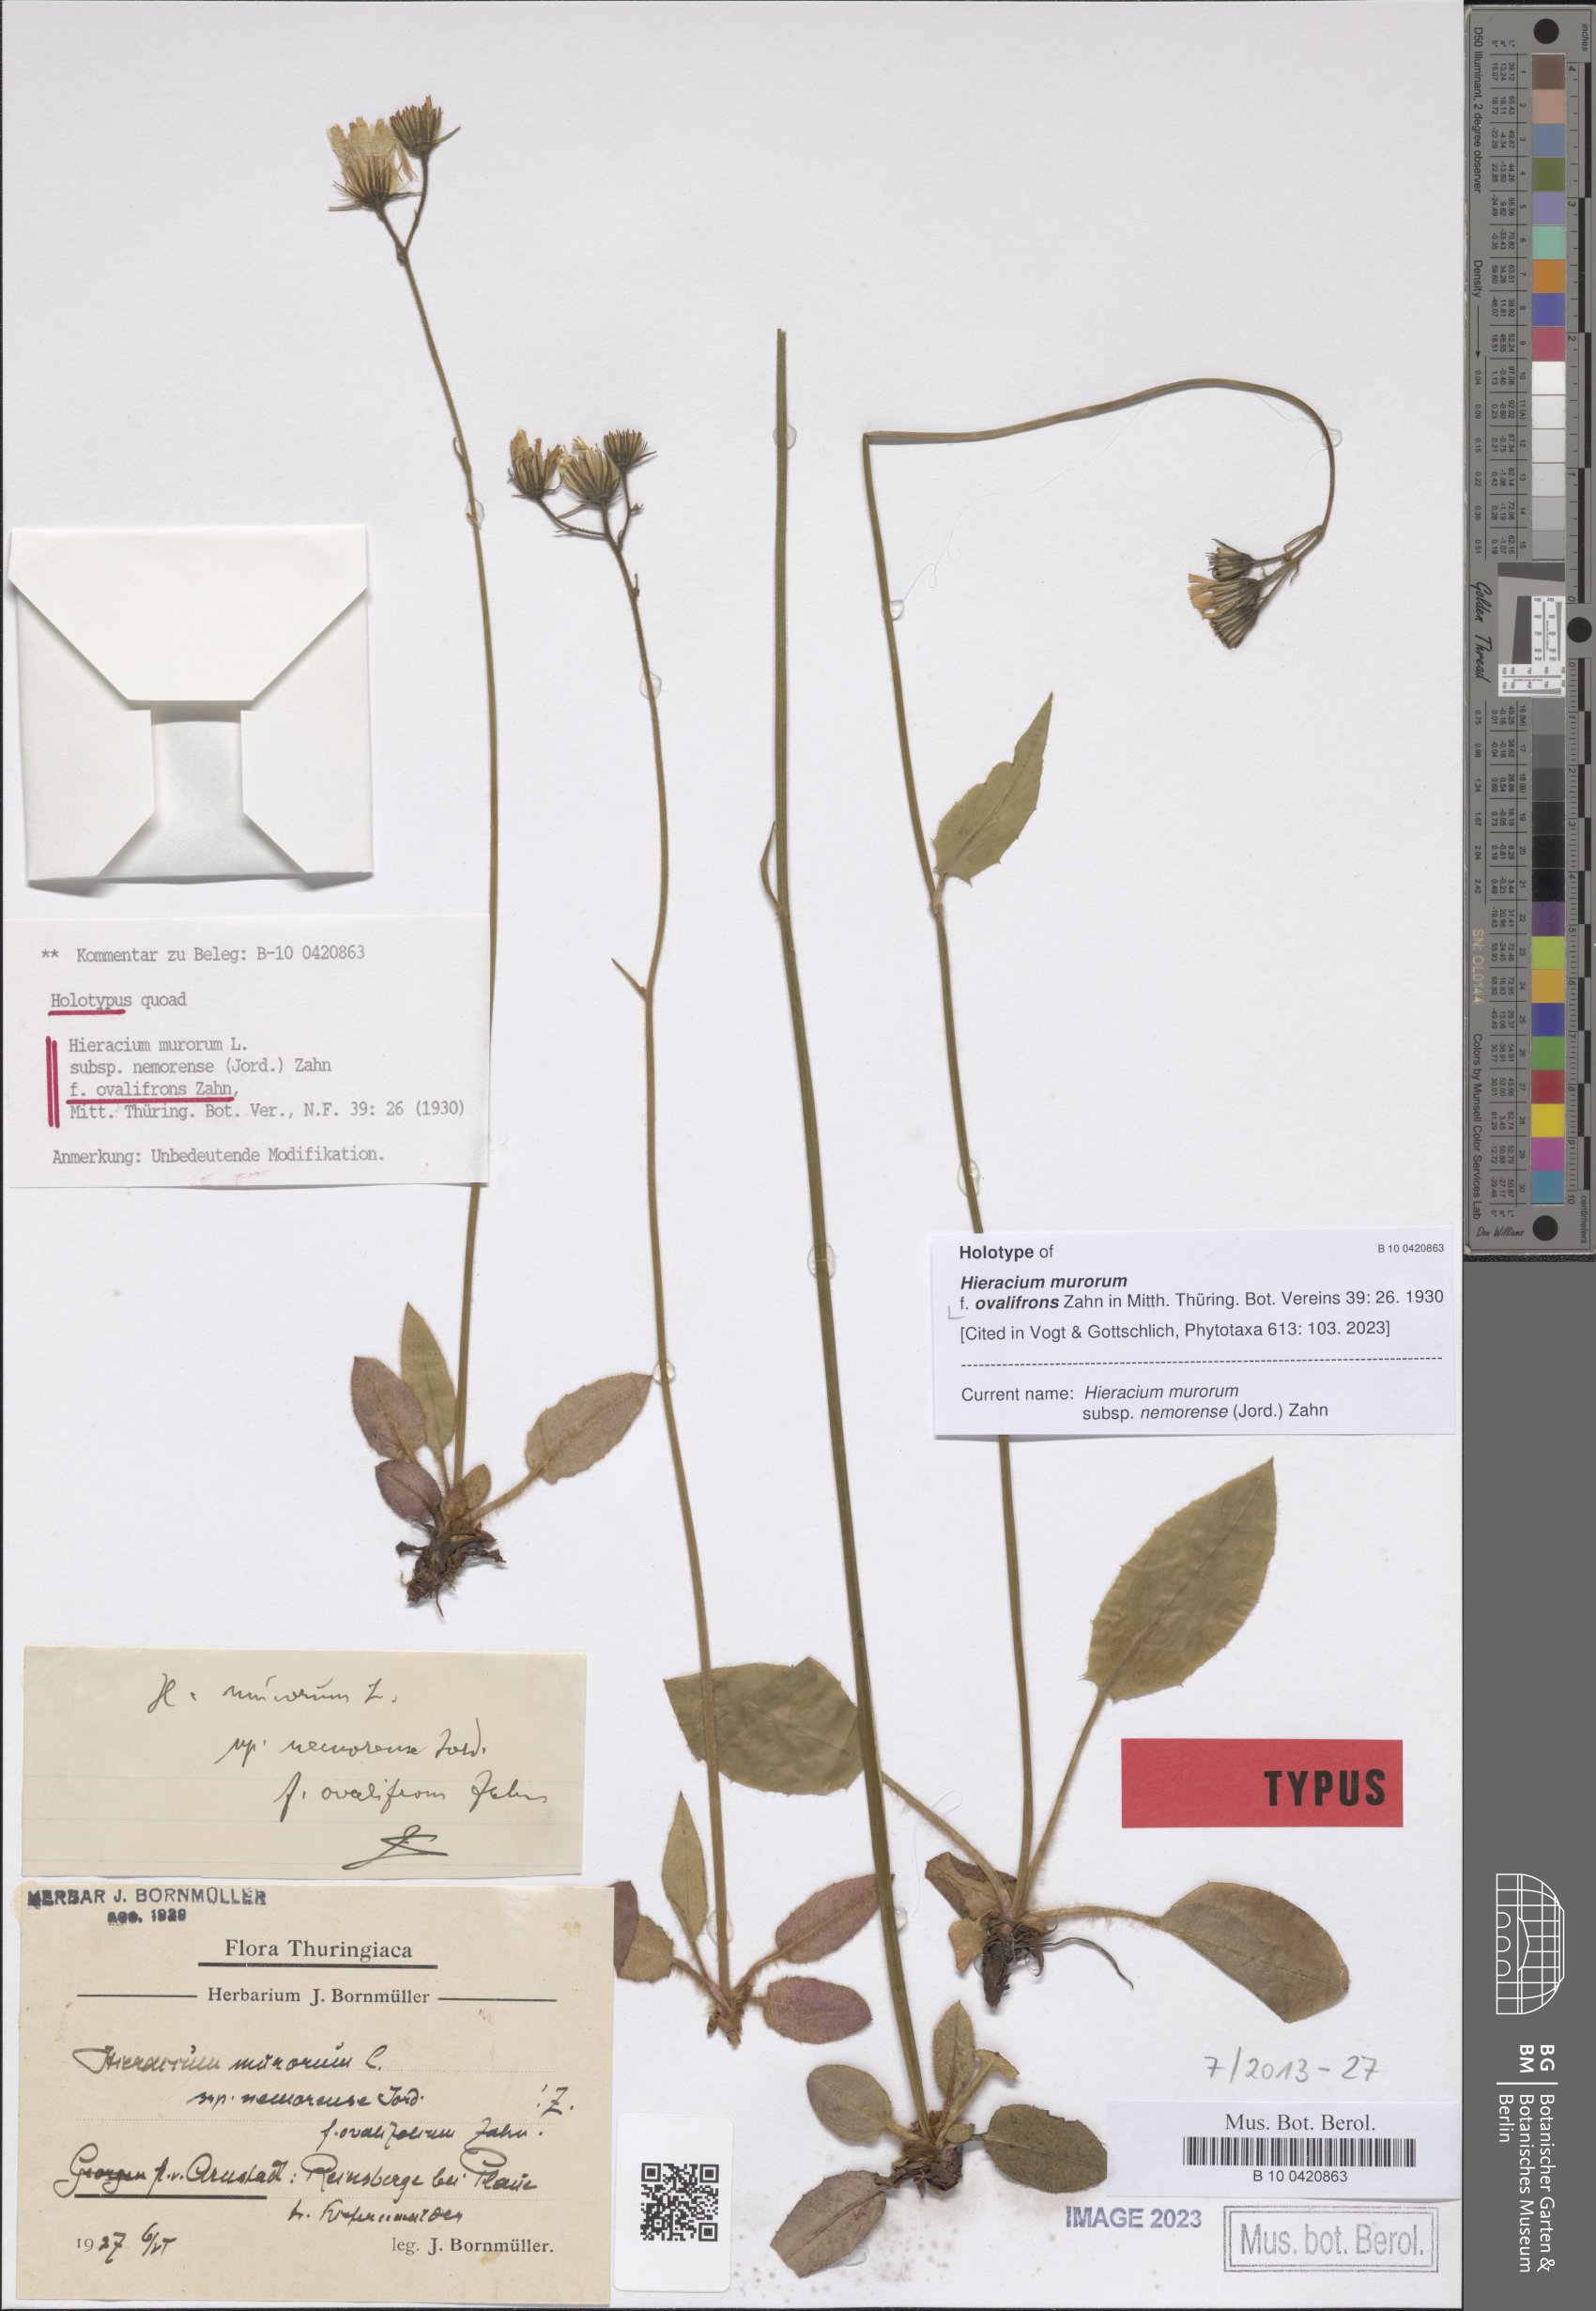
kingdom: Plantae
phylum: Tracheophyta
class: Magnoliopsida
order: Asterales
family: Asteraceae
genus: Hieracium
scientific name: Hieracium murorum
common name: Wall hawkweed
